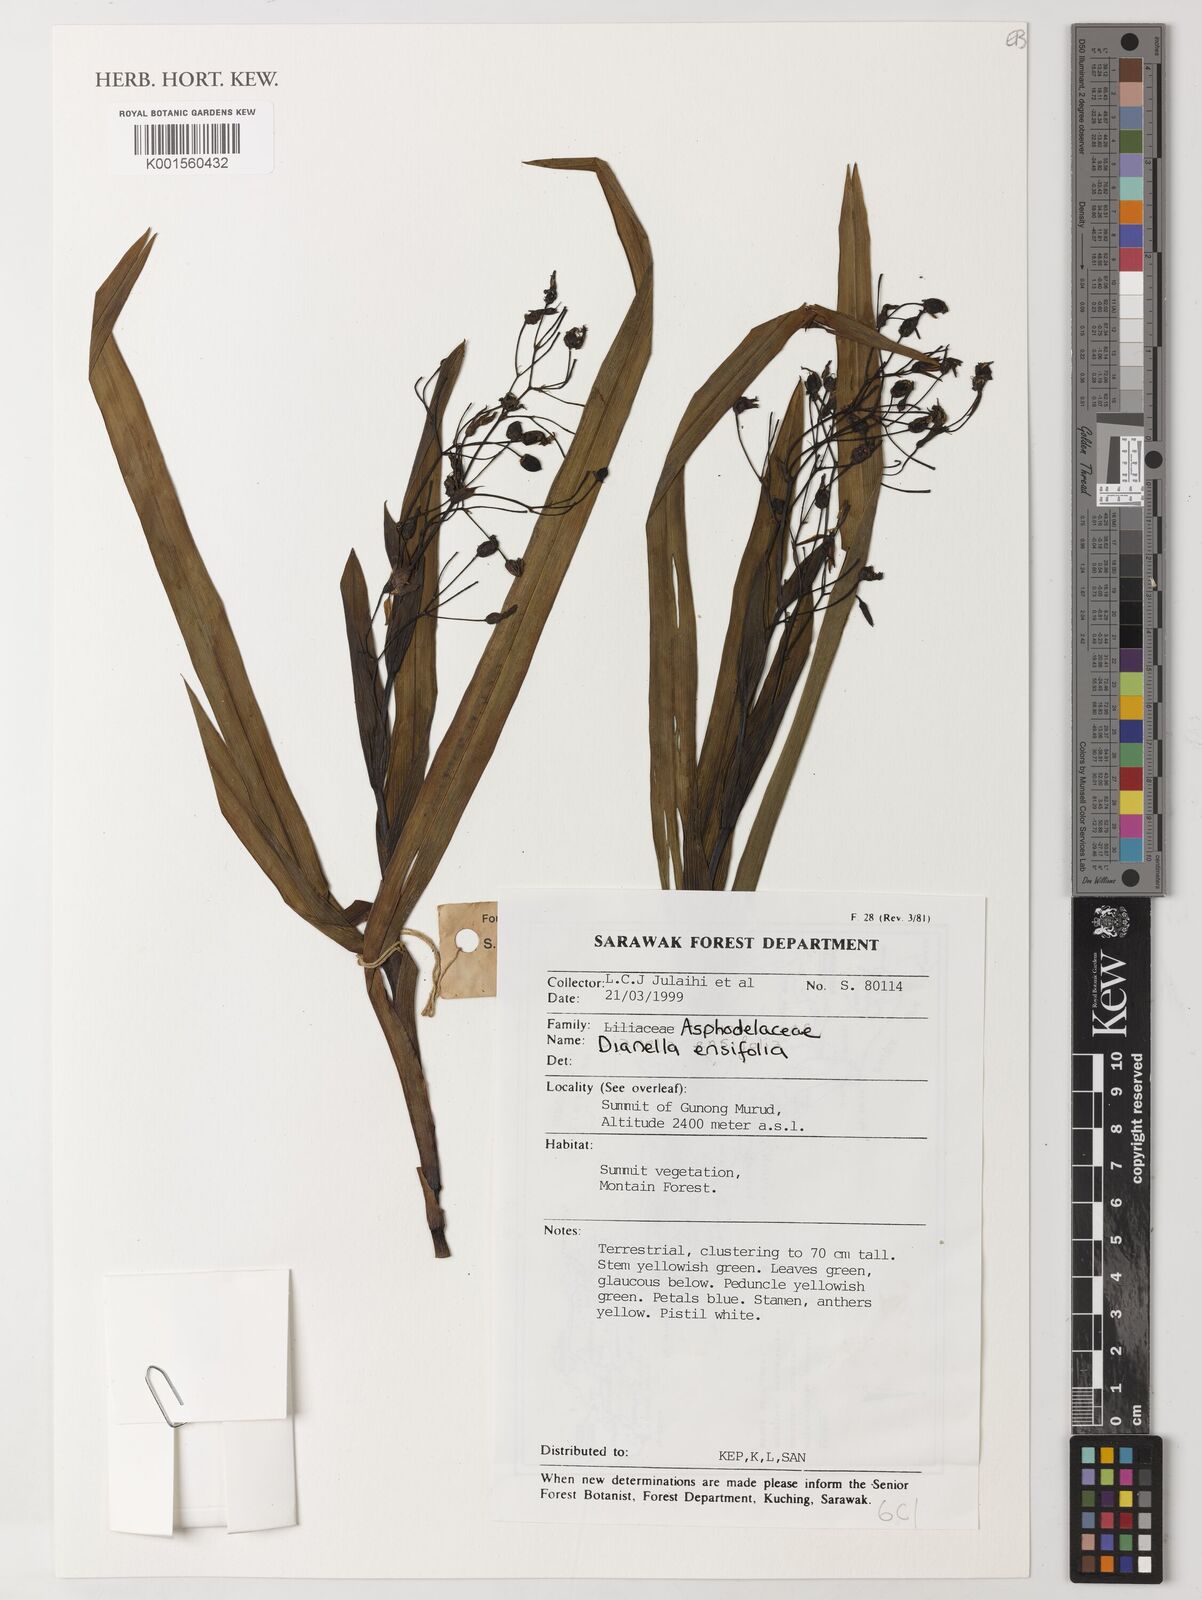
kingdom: Plantae
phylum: Tracheophyta
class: Liliopsida
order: Asparagales
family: Asphodelaceae
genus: Dianella
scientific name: Dianella ensifolia
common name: New zealand lilyplant
